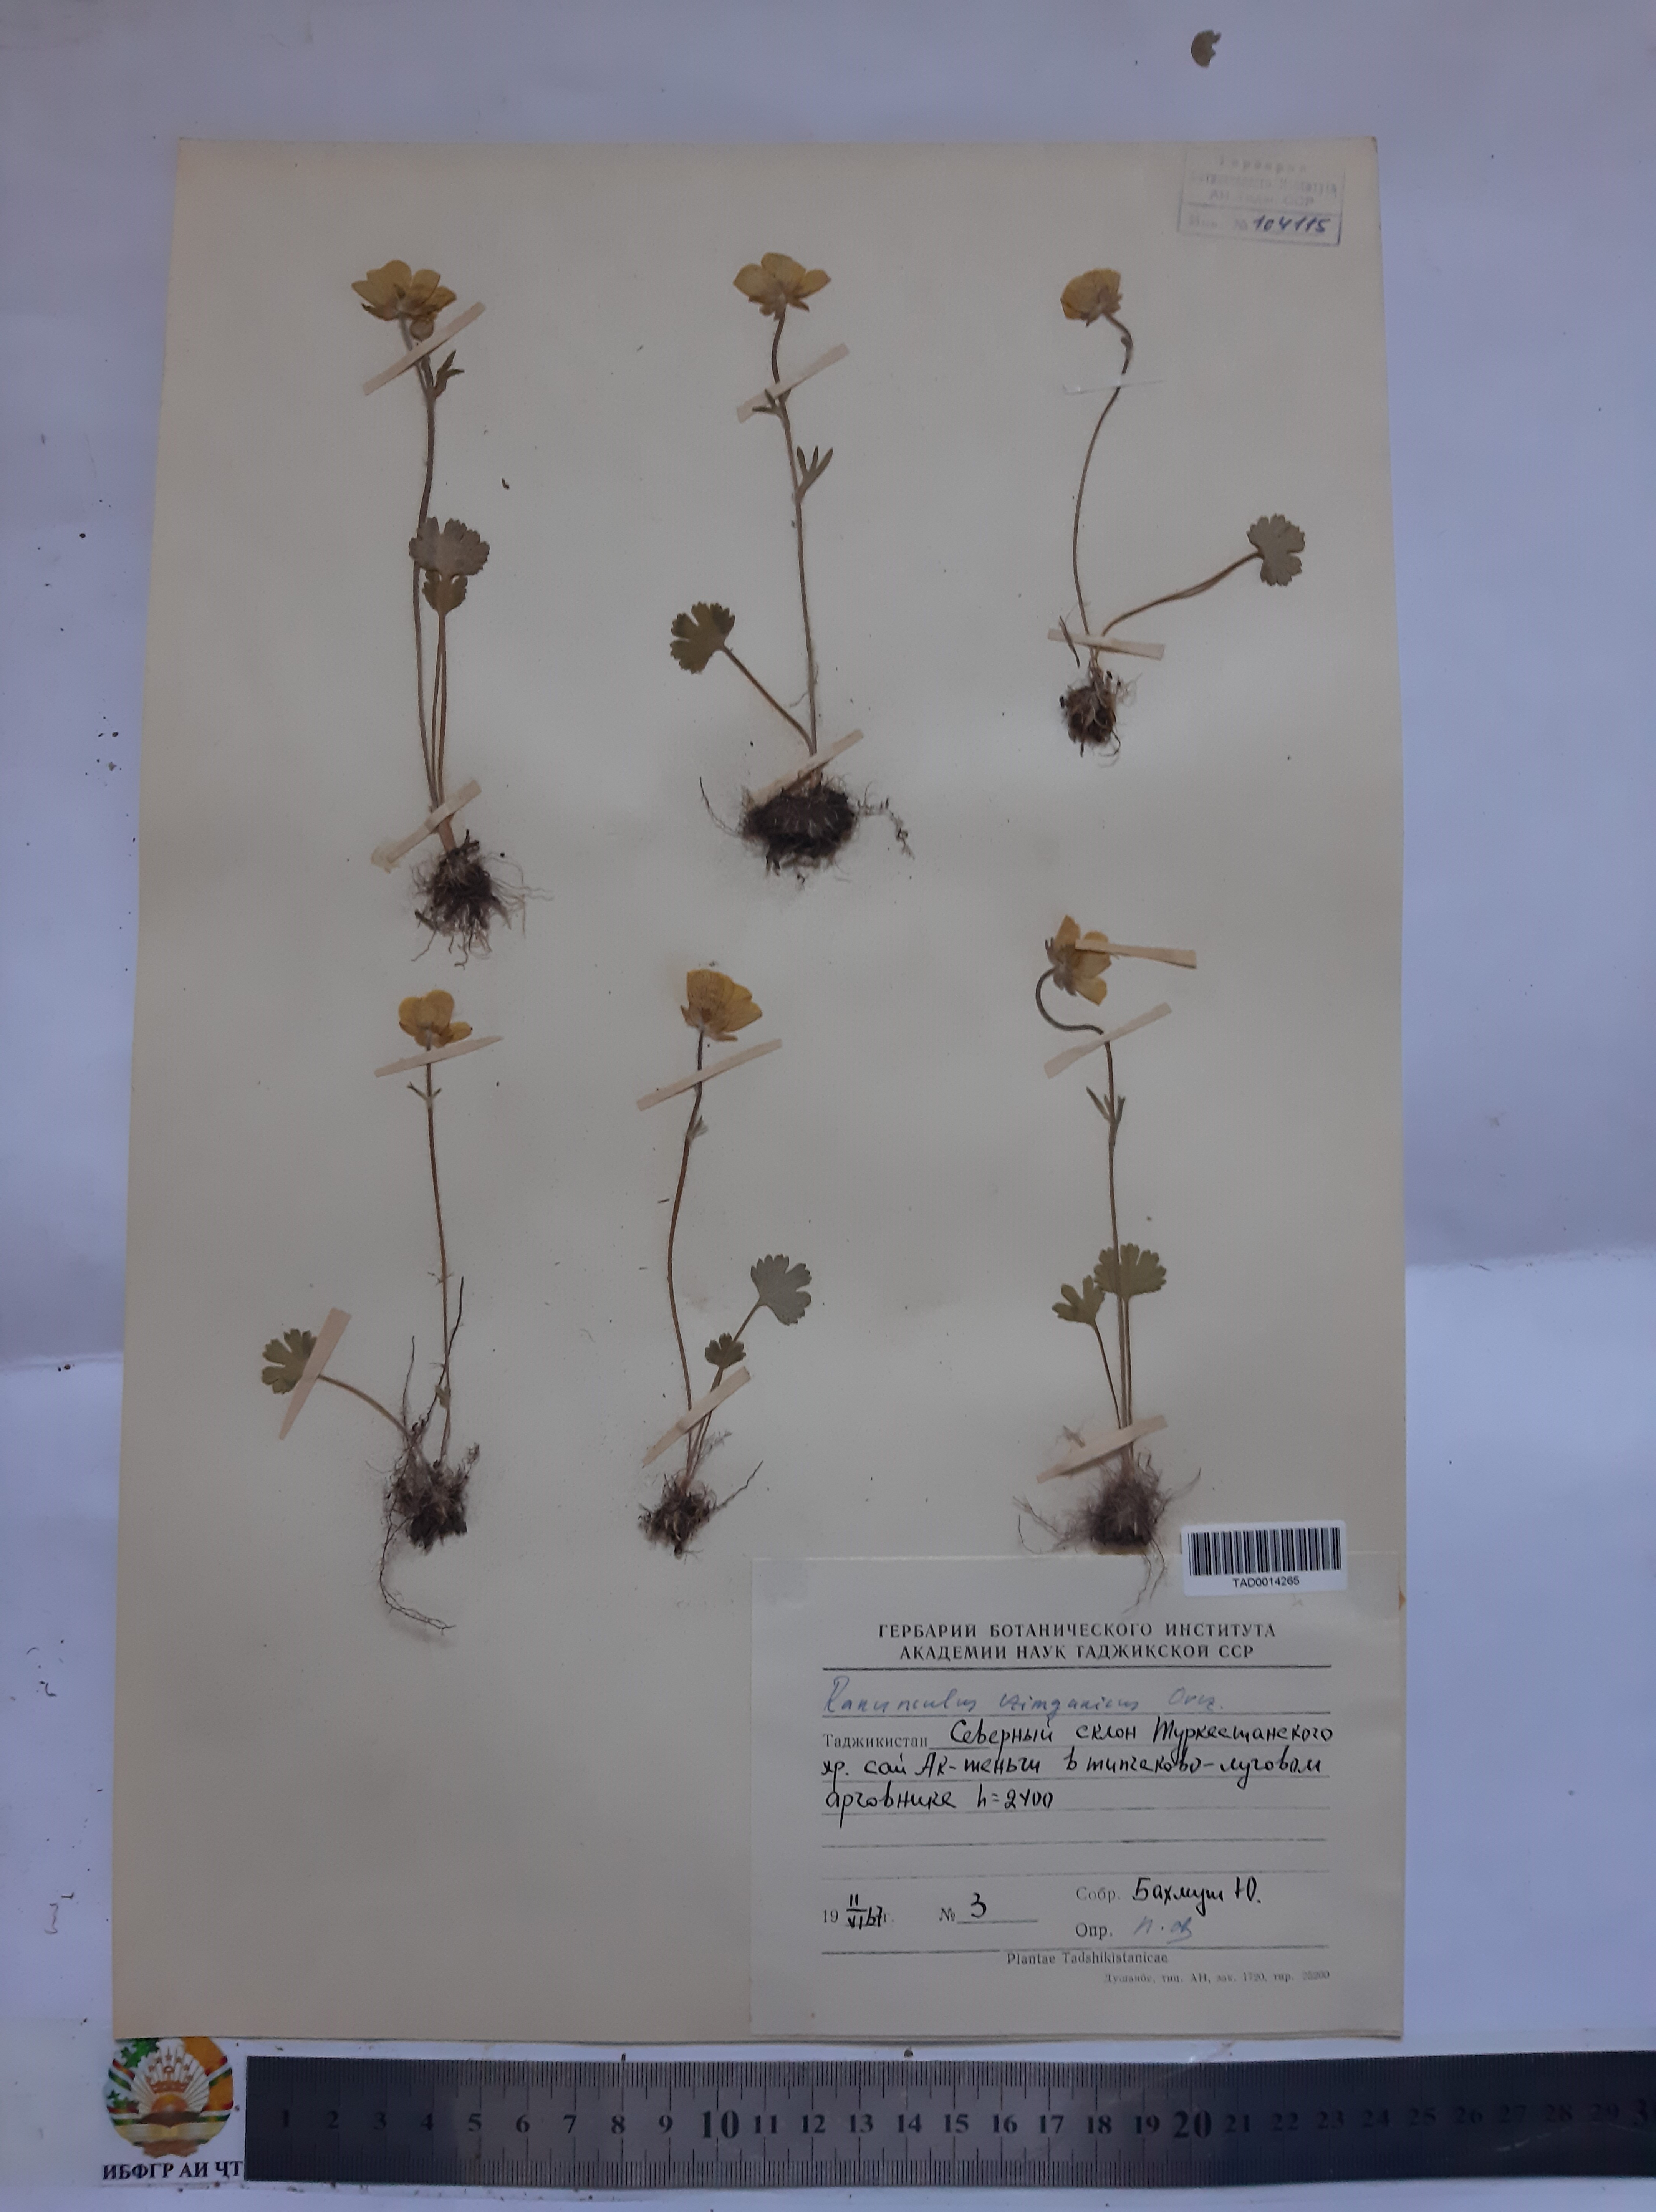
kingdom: Plantae
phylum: Tracheophyta
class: Magnoliopsida
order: Ranunculales
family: Ranunculaceae
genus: Ranunculus
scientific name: Ranunculus czimganicus
